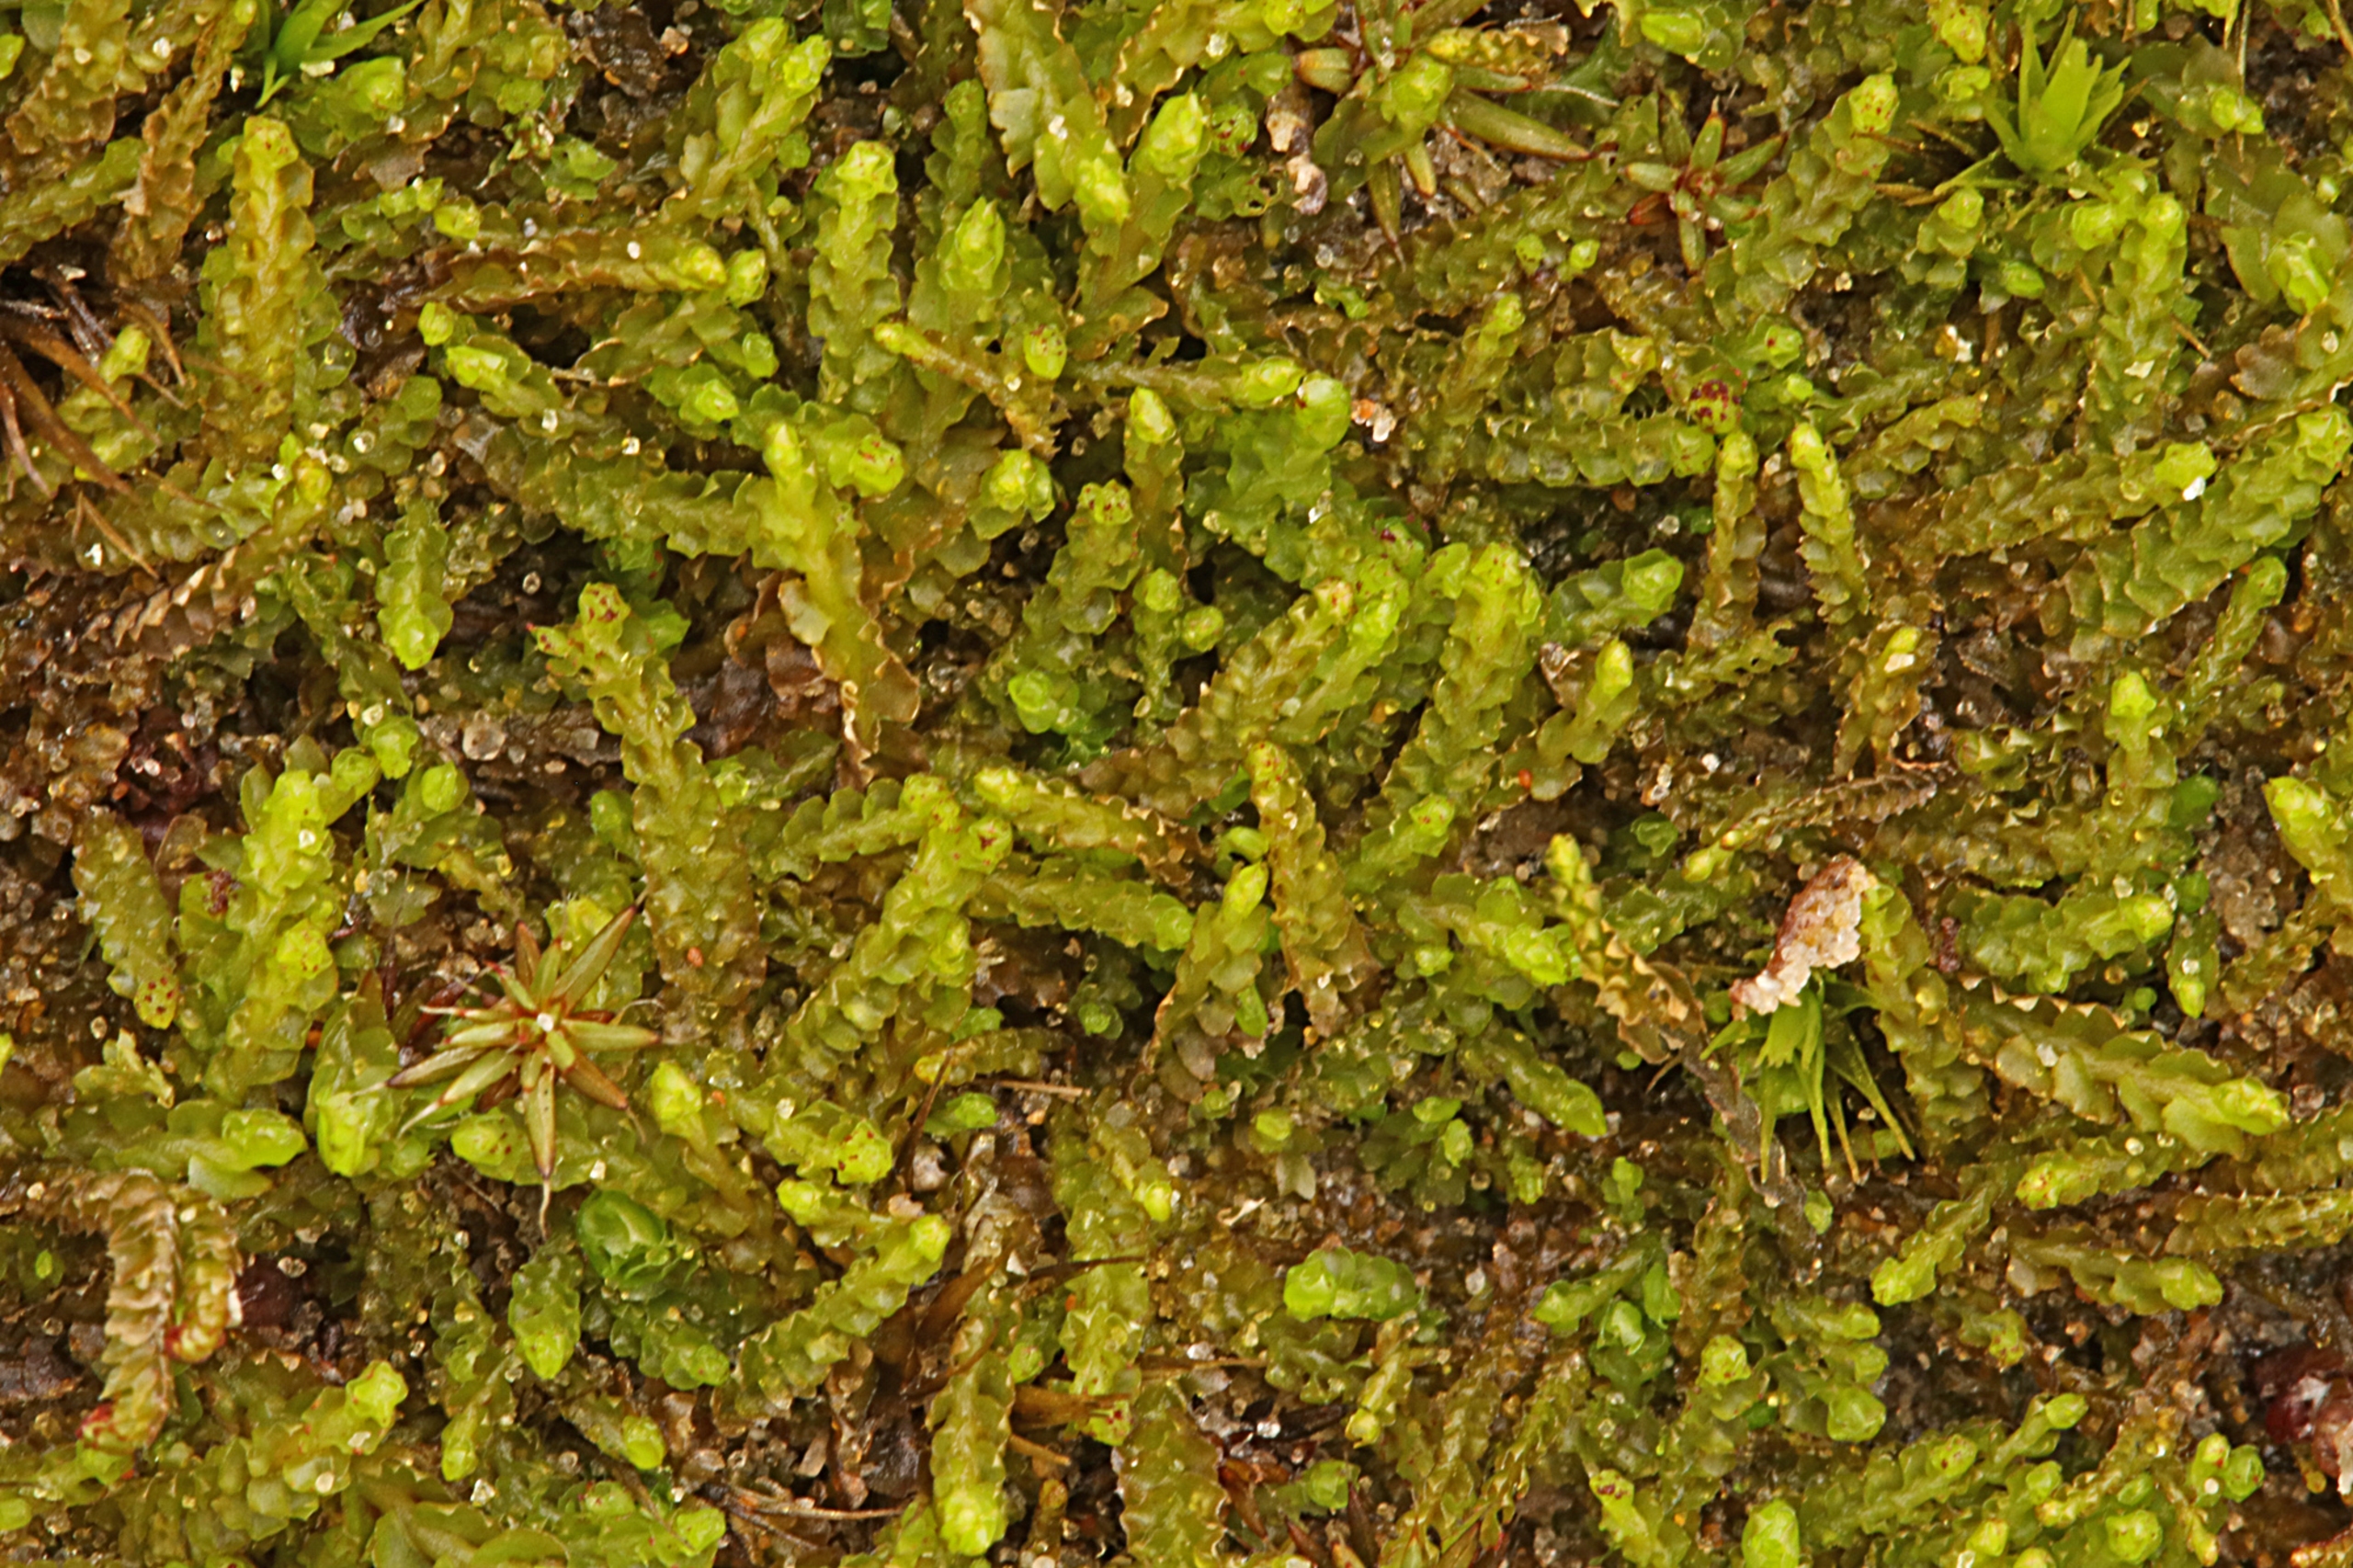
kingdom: Plantae
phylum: Marchantiophyta
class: Jungermanniopsida
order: Jungermanniales
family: Anastrophyllaceae
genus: Barbilophozia
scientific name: Barbilophozia hatcheri
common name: Spidsfliget flerfligmos
